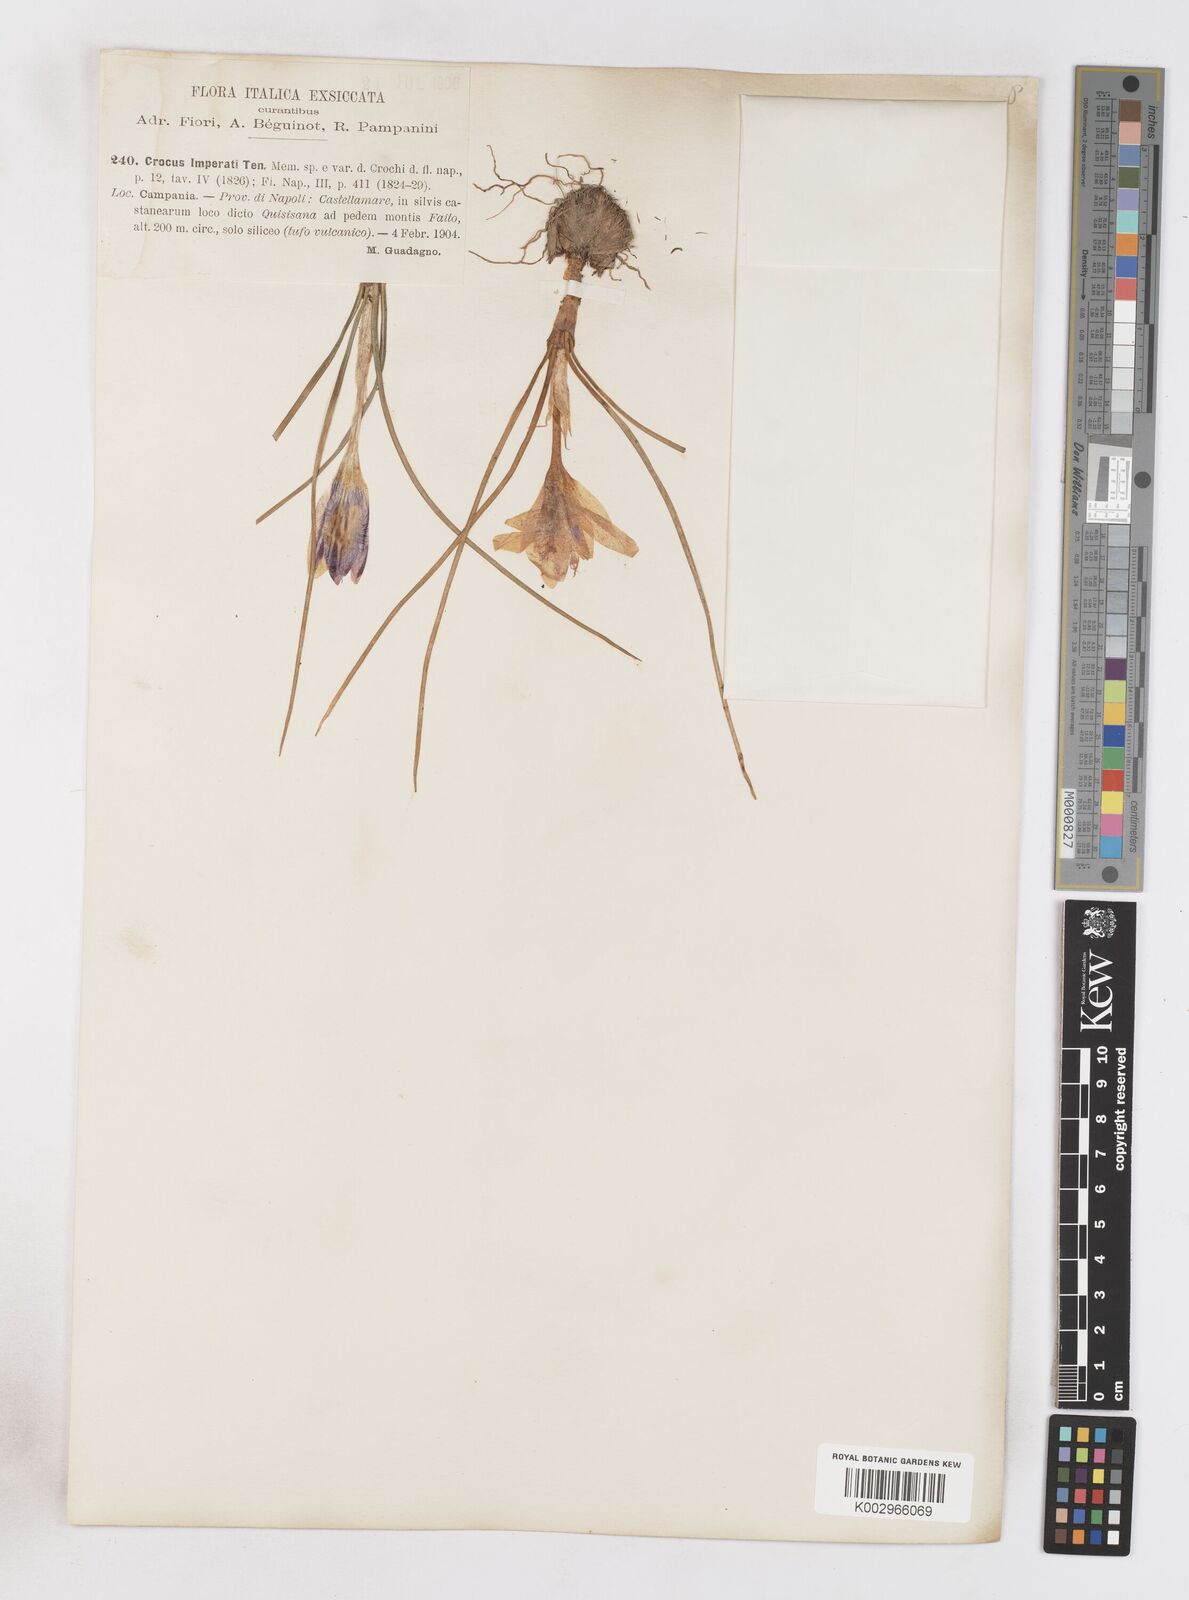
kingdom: Plantae
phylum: Tracheophyta
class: Liliopsida
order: Asparagales
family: Iridaceae
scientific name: Iridaceae
